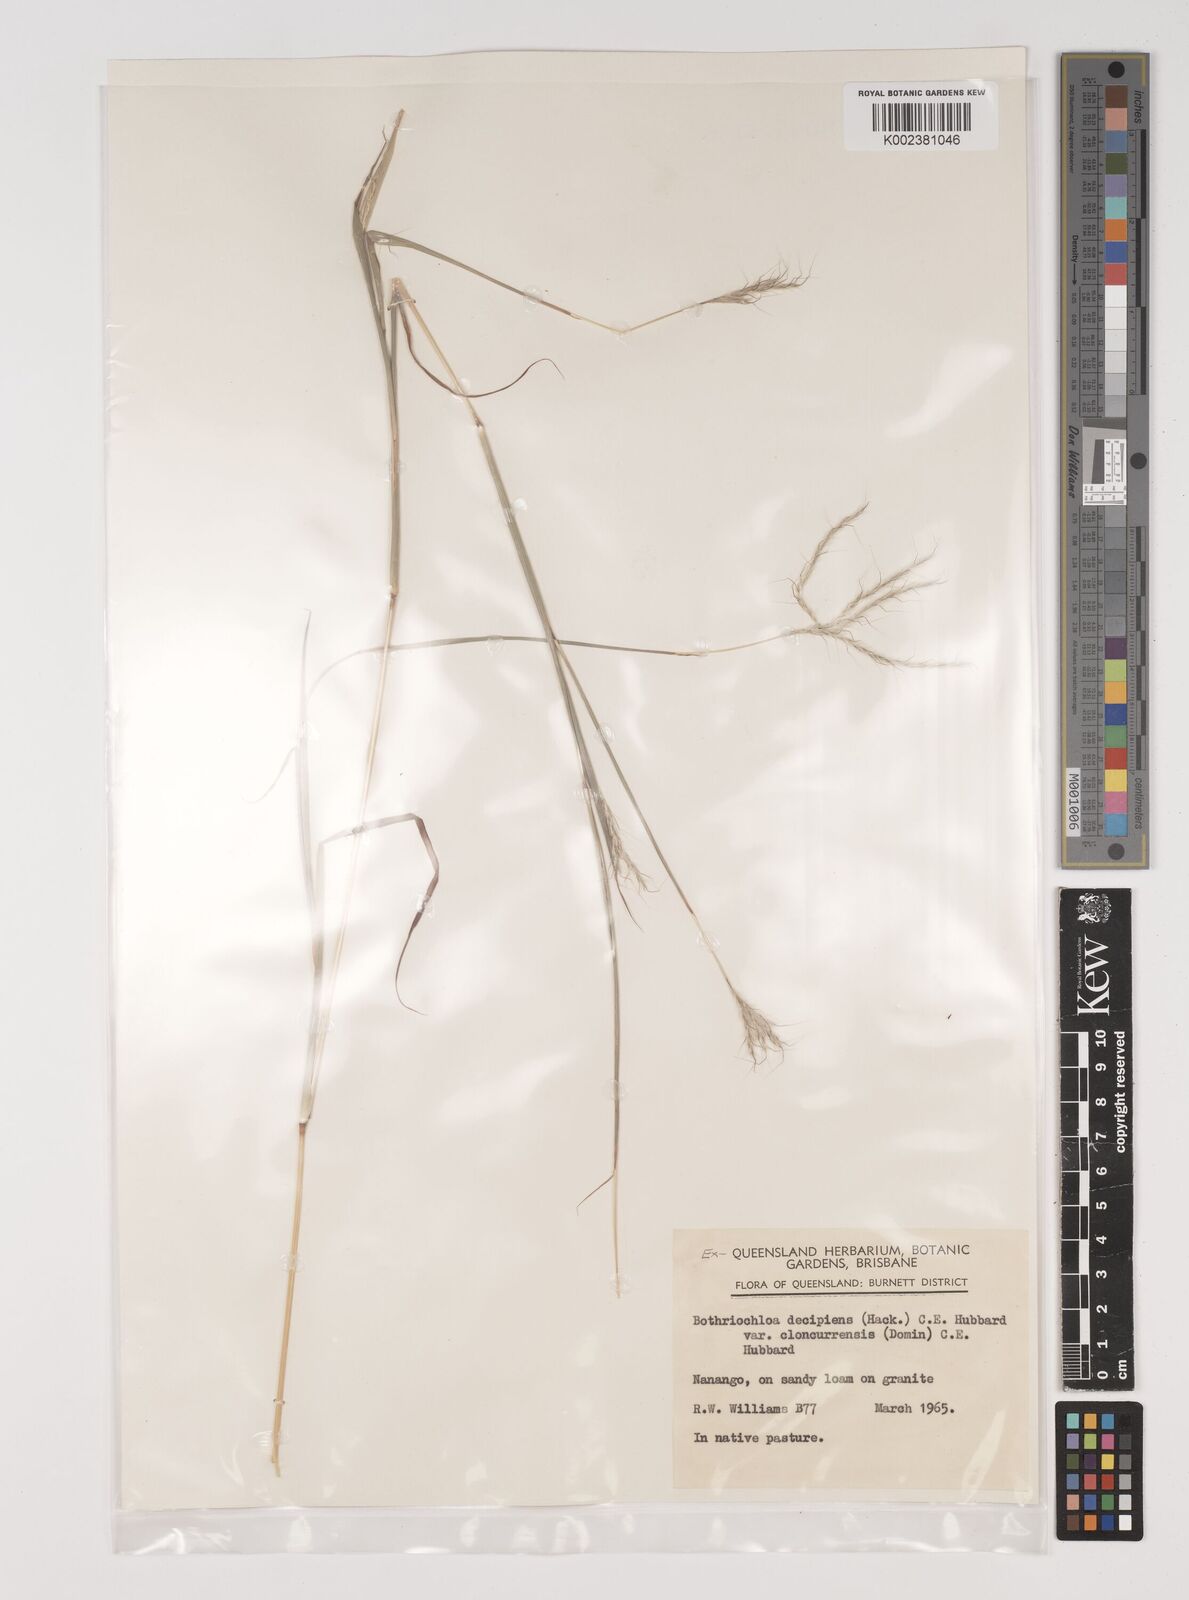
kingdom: Plantae
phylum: Tracheophyta
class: Liliopsida
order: Poales
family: Poaceae
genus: Bothriochloa
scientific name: Bothriochloa decipiens
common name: Pitted-bluegrass
